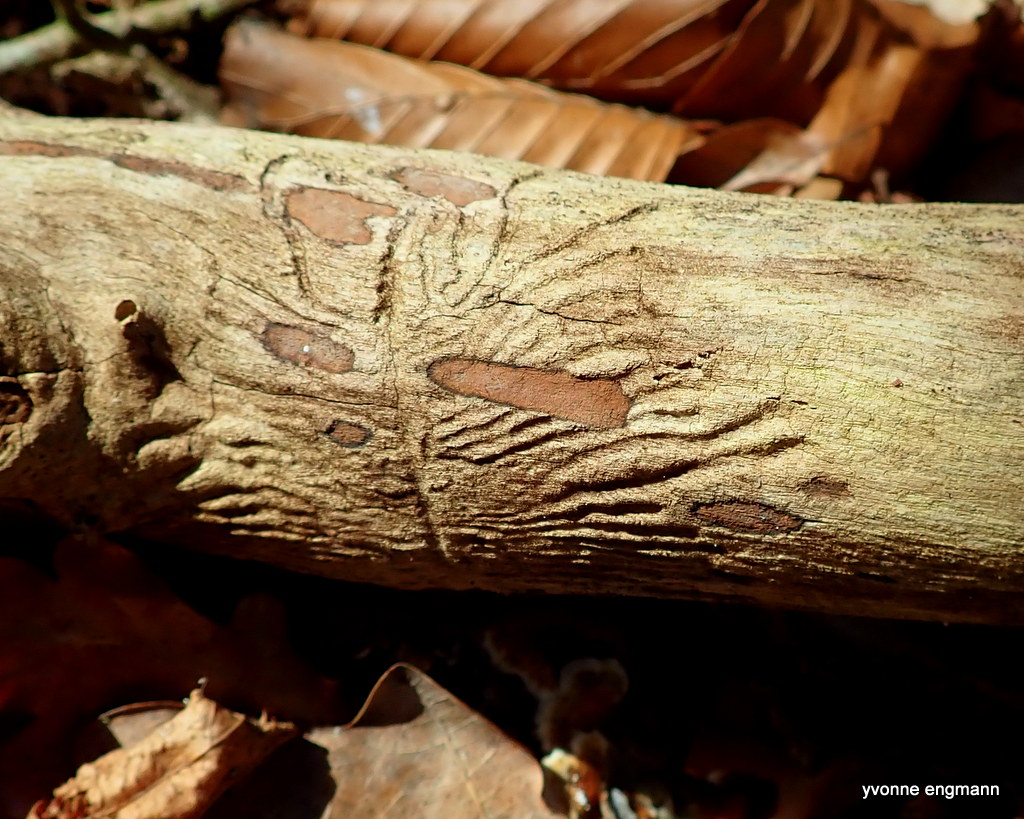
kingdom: Fungi
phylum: Ascomycota
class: Sordariomycetes
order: Xylariales
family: Hypoxylaceae
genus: Hypoxylon
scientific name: Hypoxylon petriniae
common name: nedsænket kulbær
